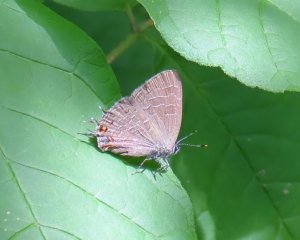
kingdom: Animalia
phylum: Arthropoda
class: Insecta
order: Lepidoptera
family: Lycaenidae
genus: Satyrium
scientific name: Satyrium liparops
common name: Striped Hairstreak
